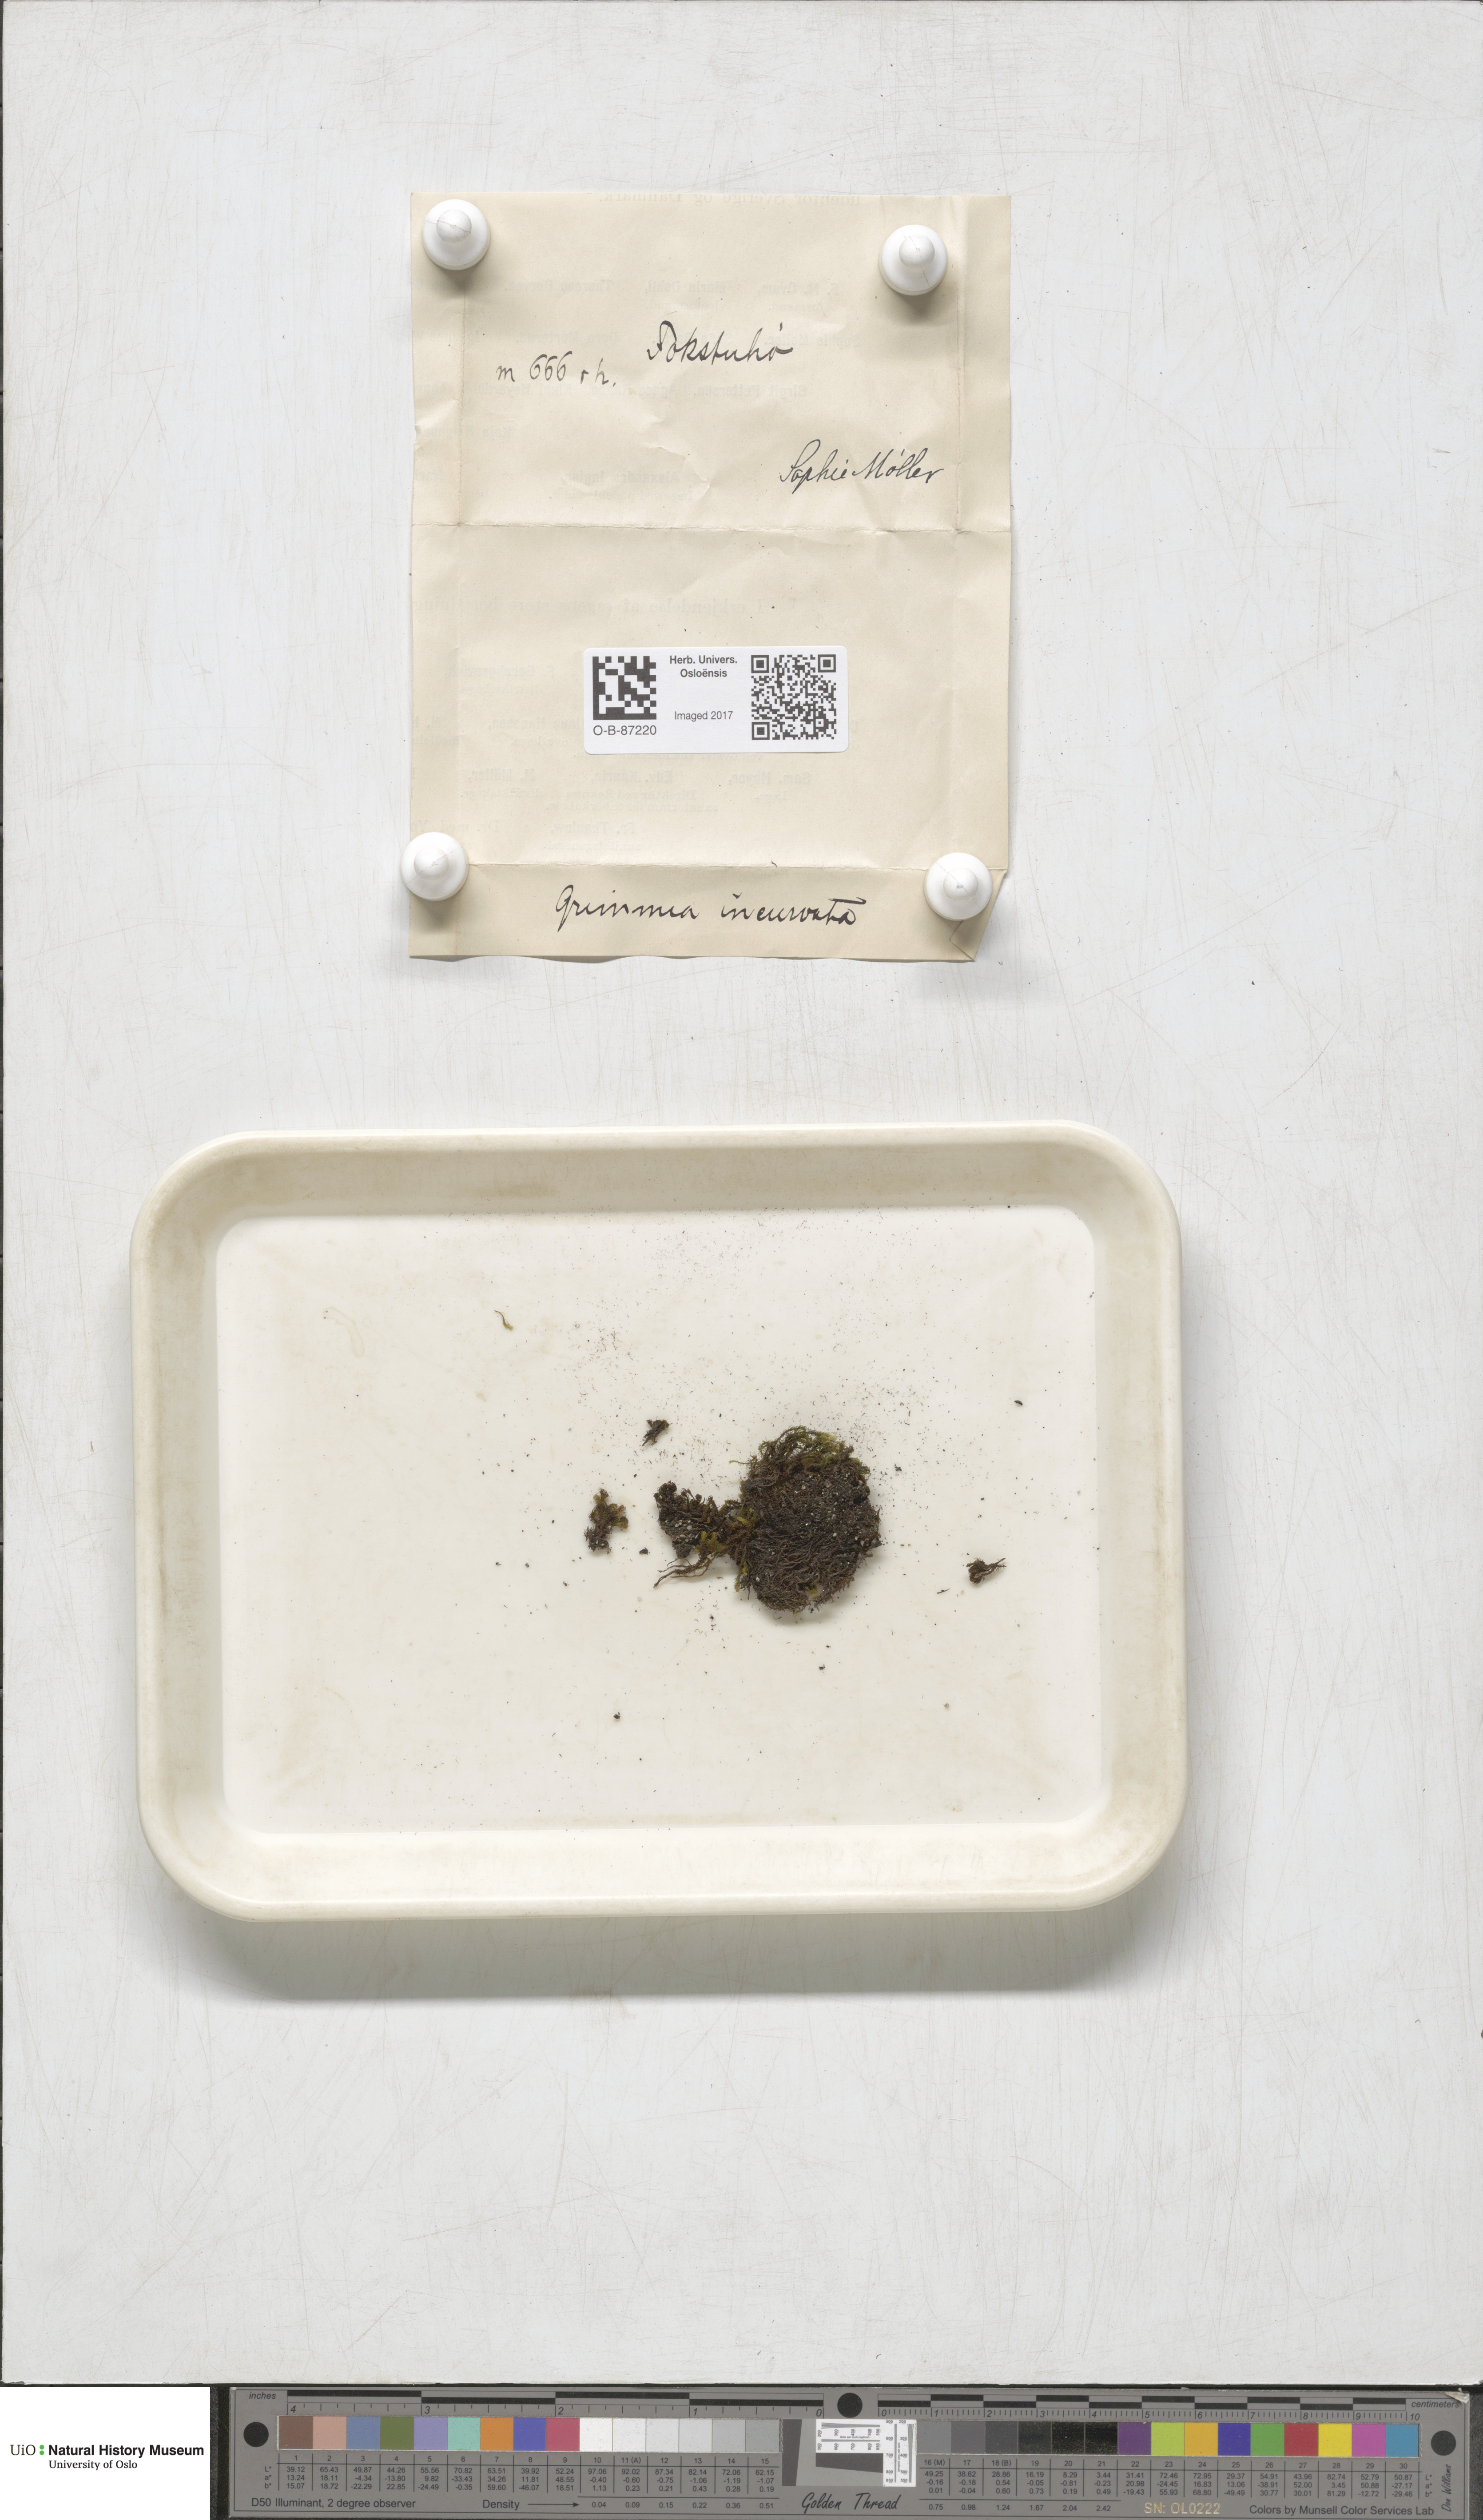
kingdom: Plantae
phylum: Bryophyta
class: Bryopsida
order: Grimmiales
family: Grimmiaceae
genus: Grimmia
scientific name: Grimmia incurva
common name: Black grimmia
